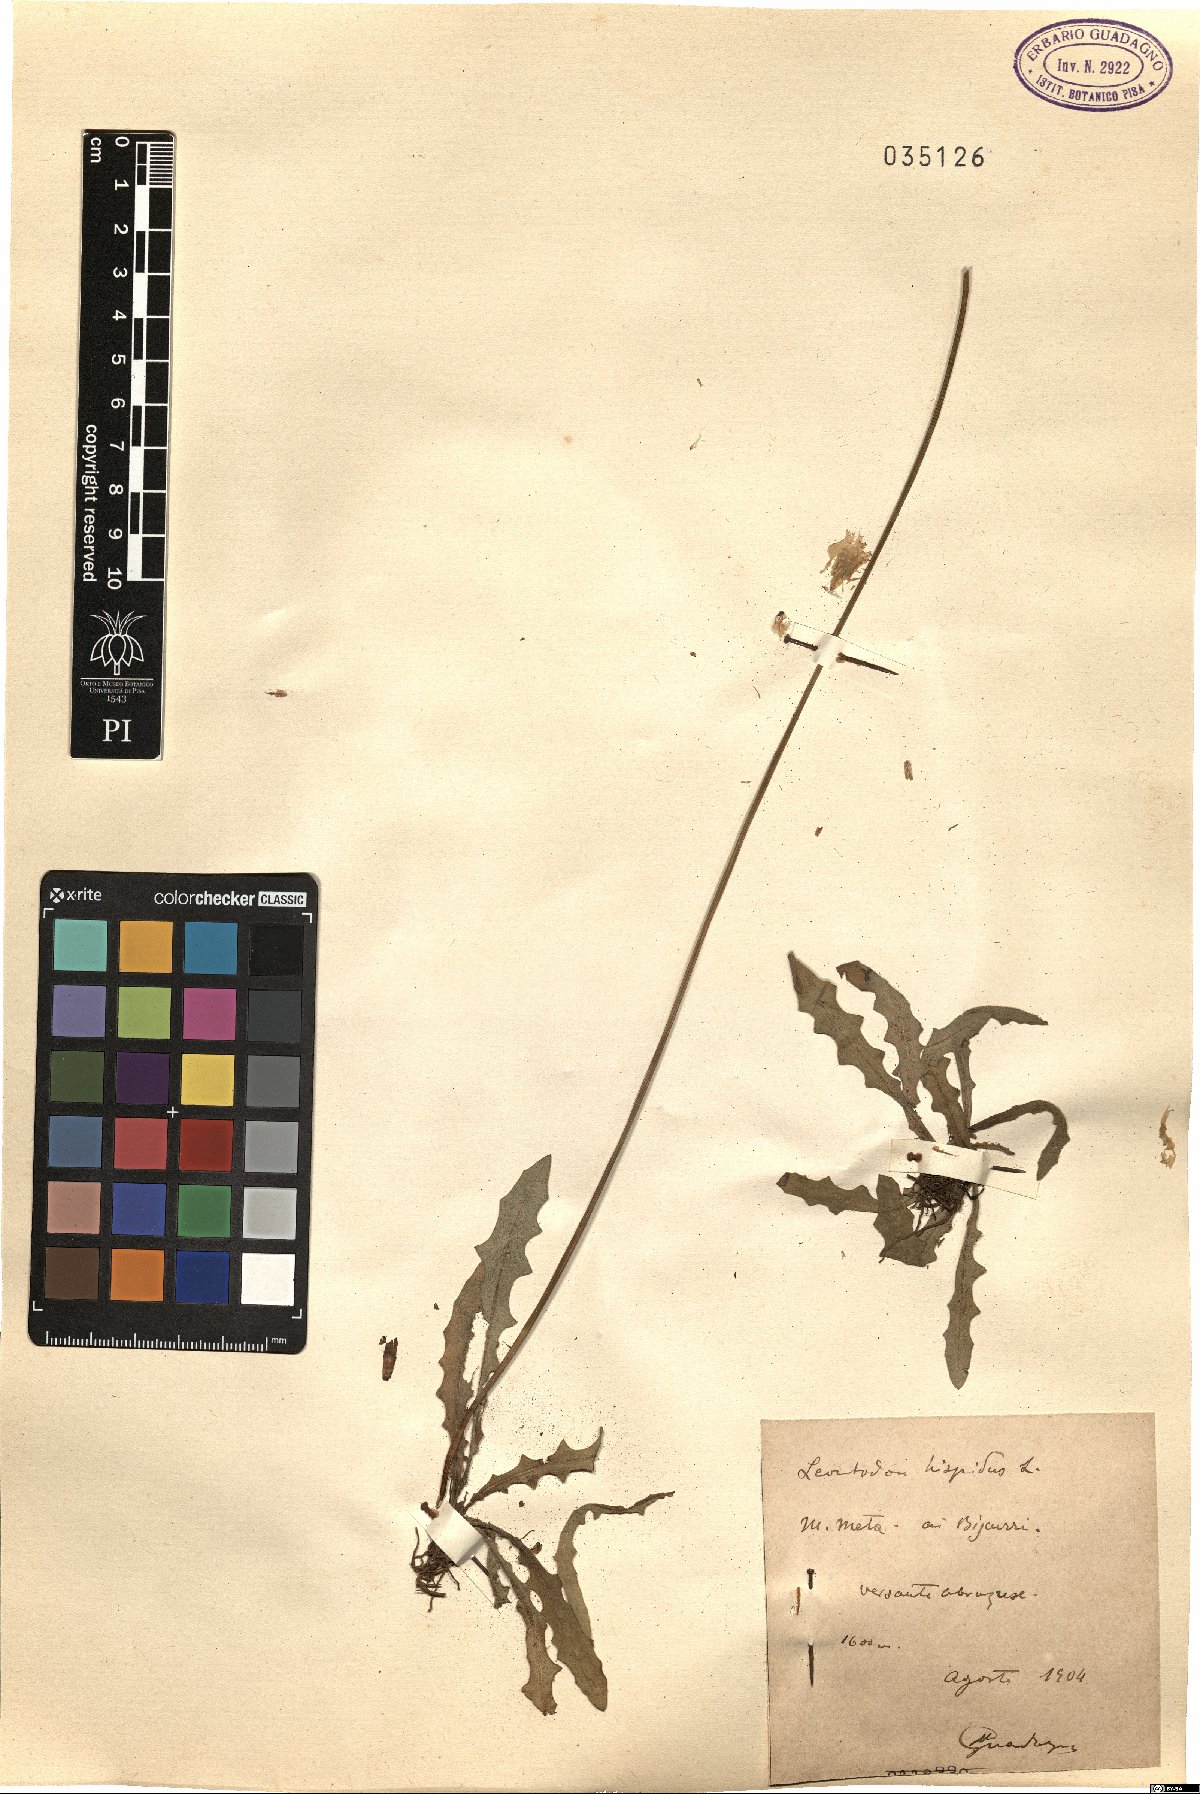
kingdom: Plantae
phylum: Tracheophyta
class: Magnoliopsida
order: Asterales
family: Asteraceae
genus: Leontodon
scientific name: Leontodon hispidus
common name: Rough hawkbit
